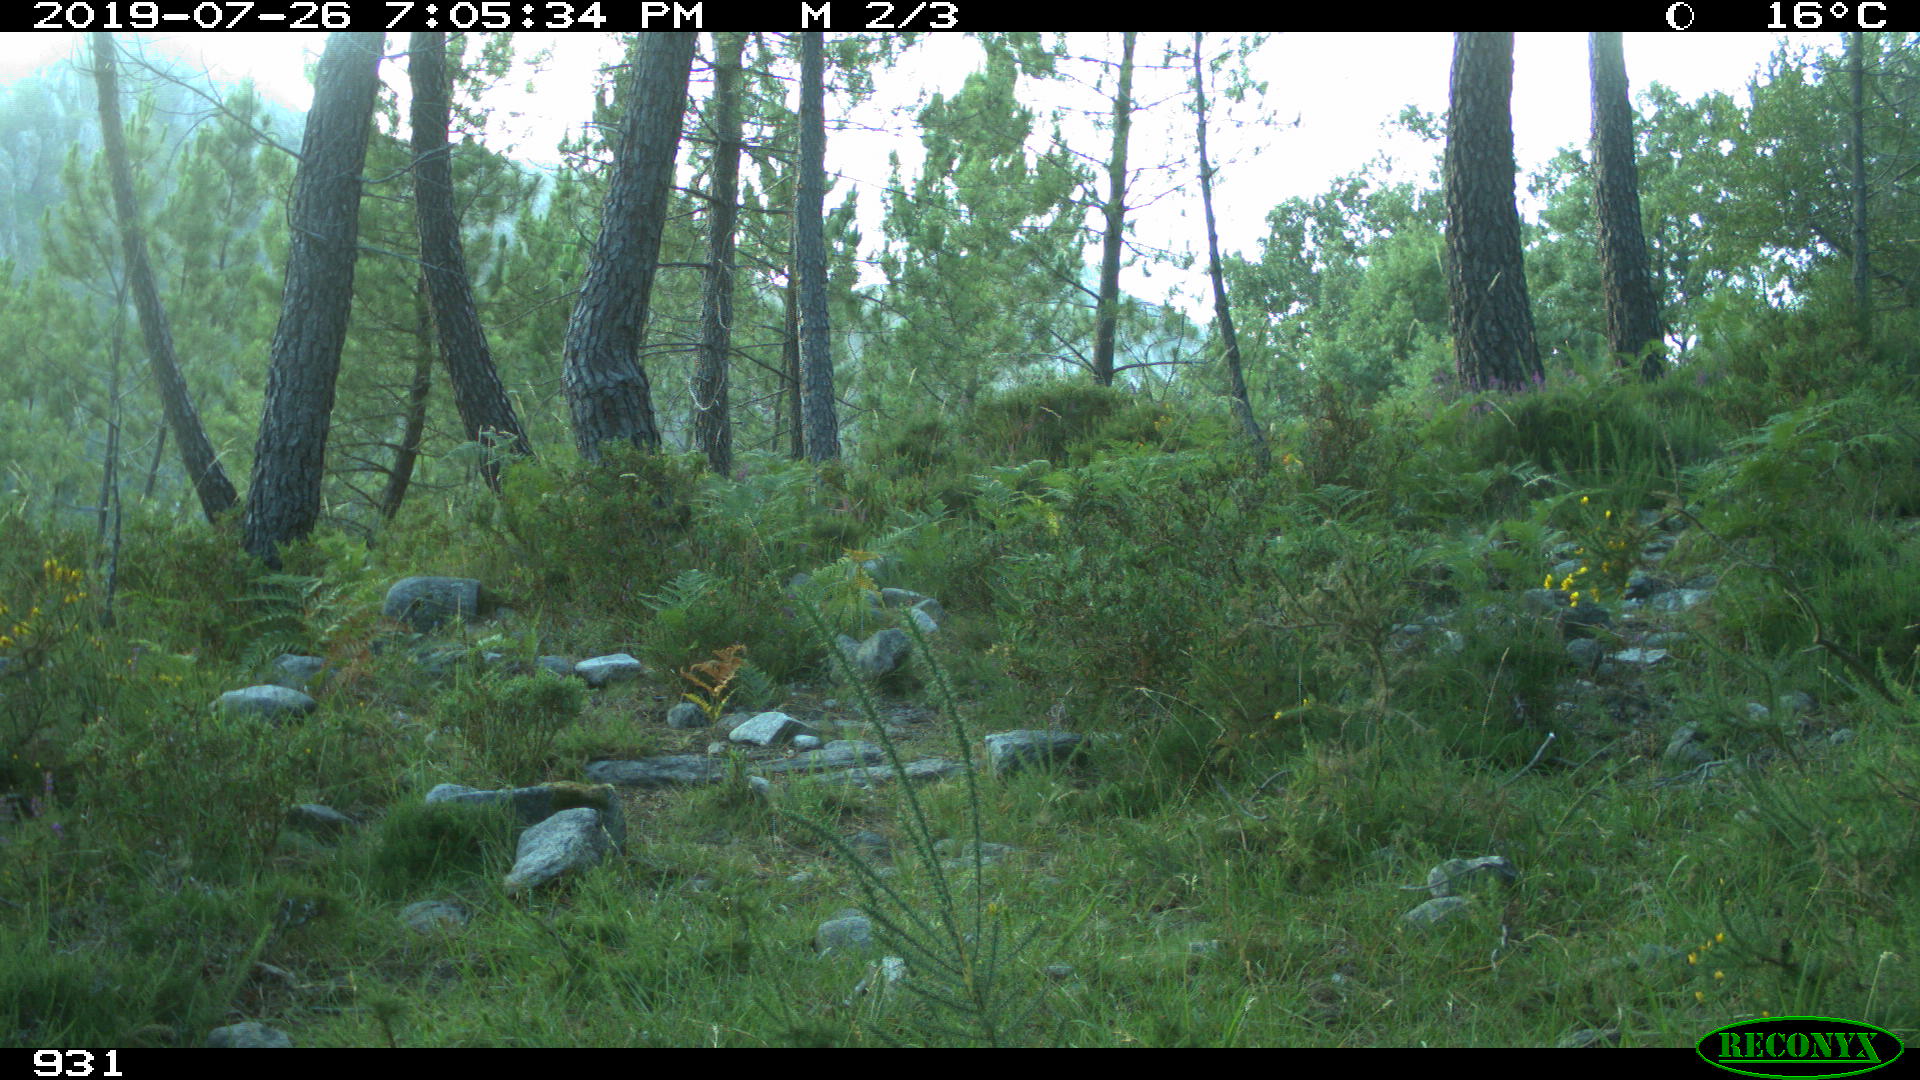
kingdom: Animalia
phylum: Chordata
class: Mammalia
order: Artiodactyla
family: Cervidae
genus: Capreolus
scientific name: Capreolus capreolus
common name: Western roe deer
